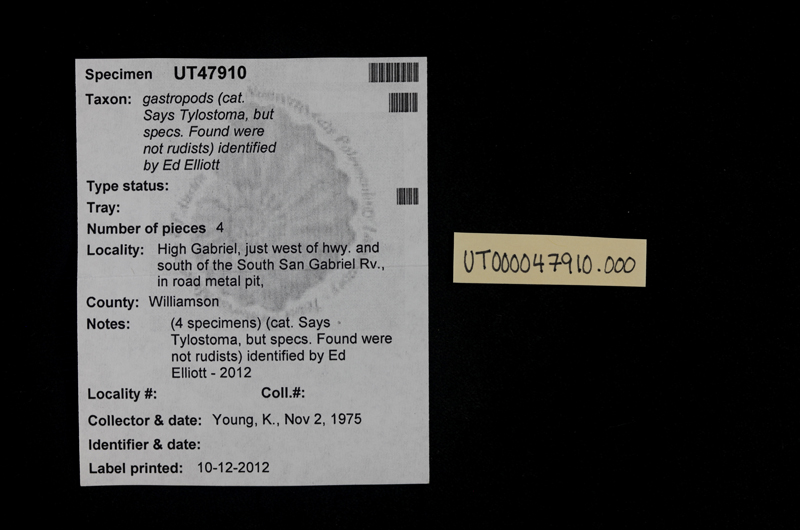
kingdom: Animalia
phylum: Mollusca
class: Gastropoda
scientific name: Gastropoda
